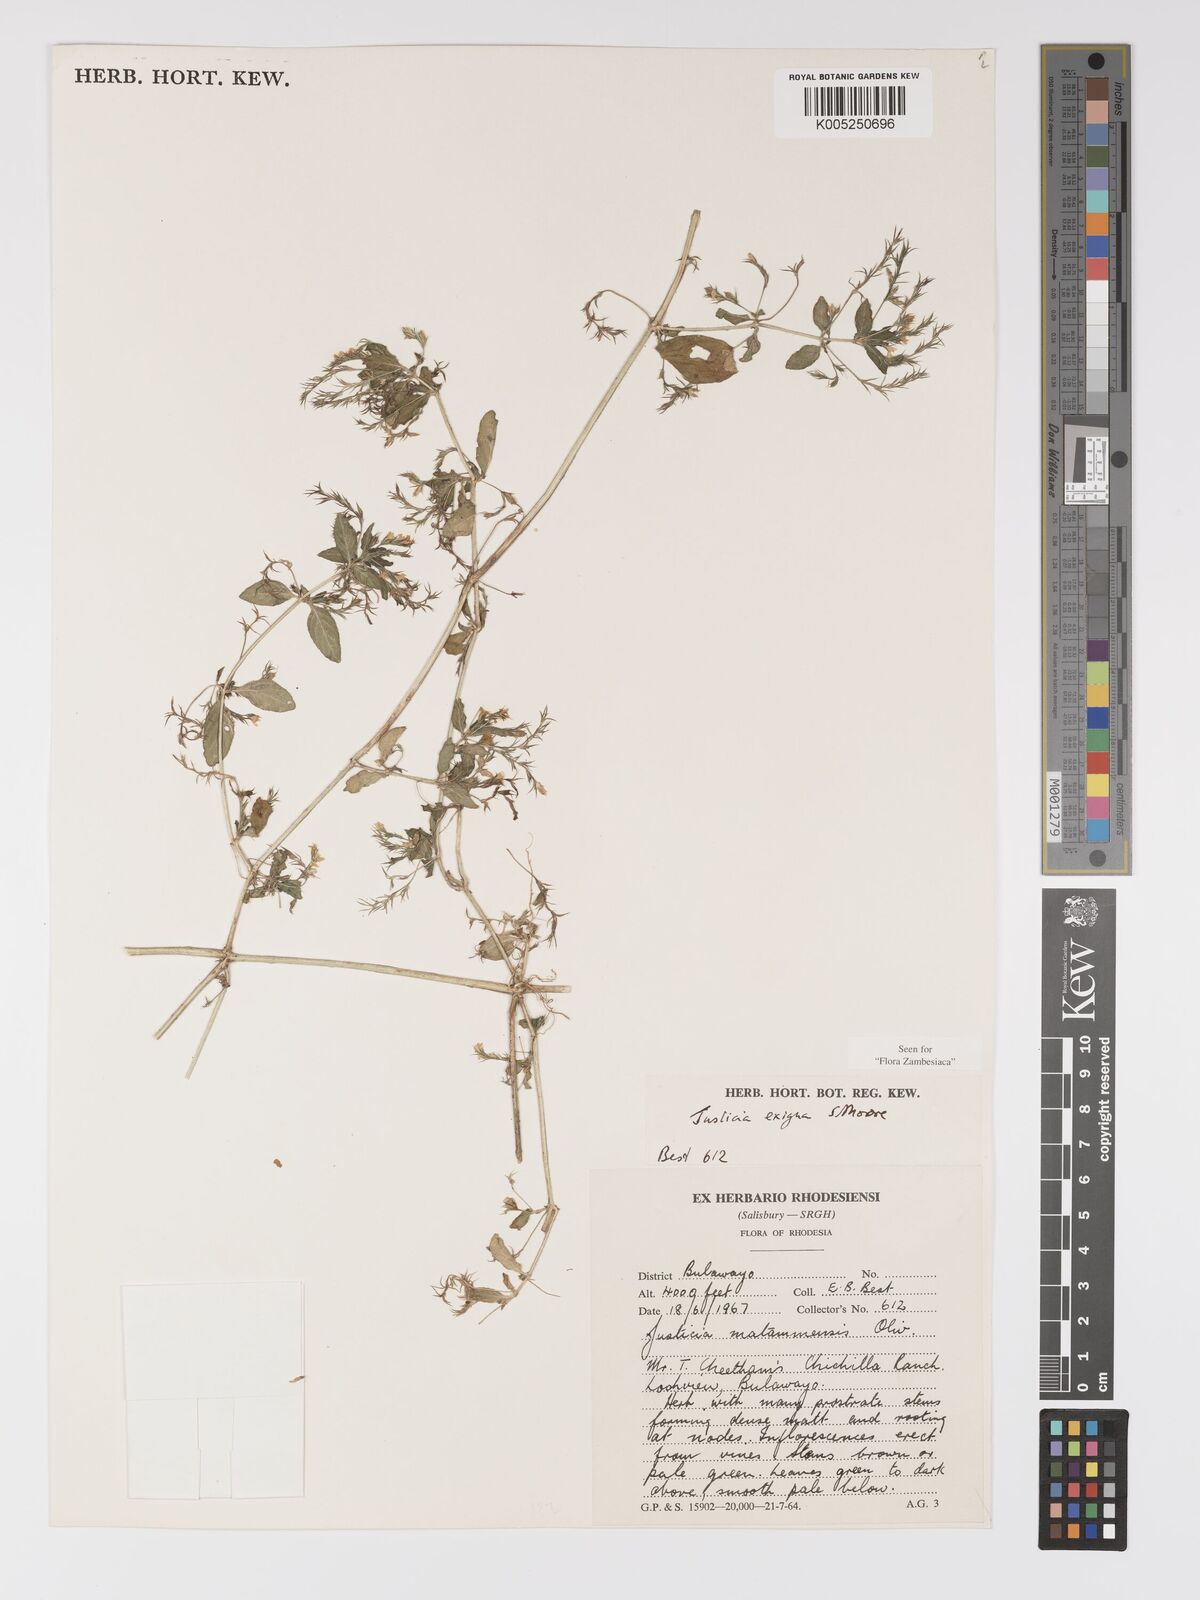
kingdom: Plantae
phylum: Tracheophyta
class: Magnoliopsida
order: Lamiales
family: Acanthaceae
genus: Justicia
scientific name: Justicia exigua
